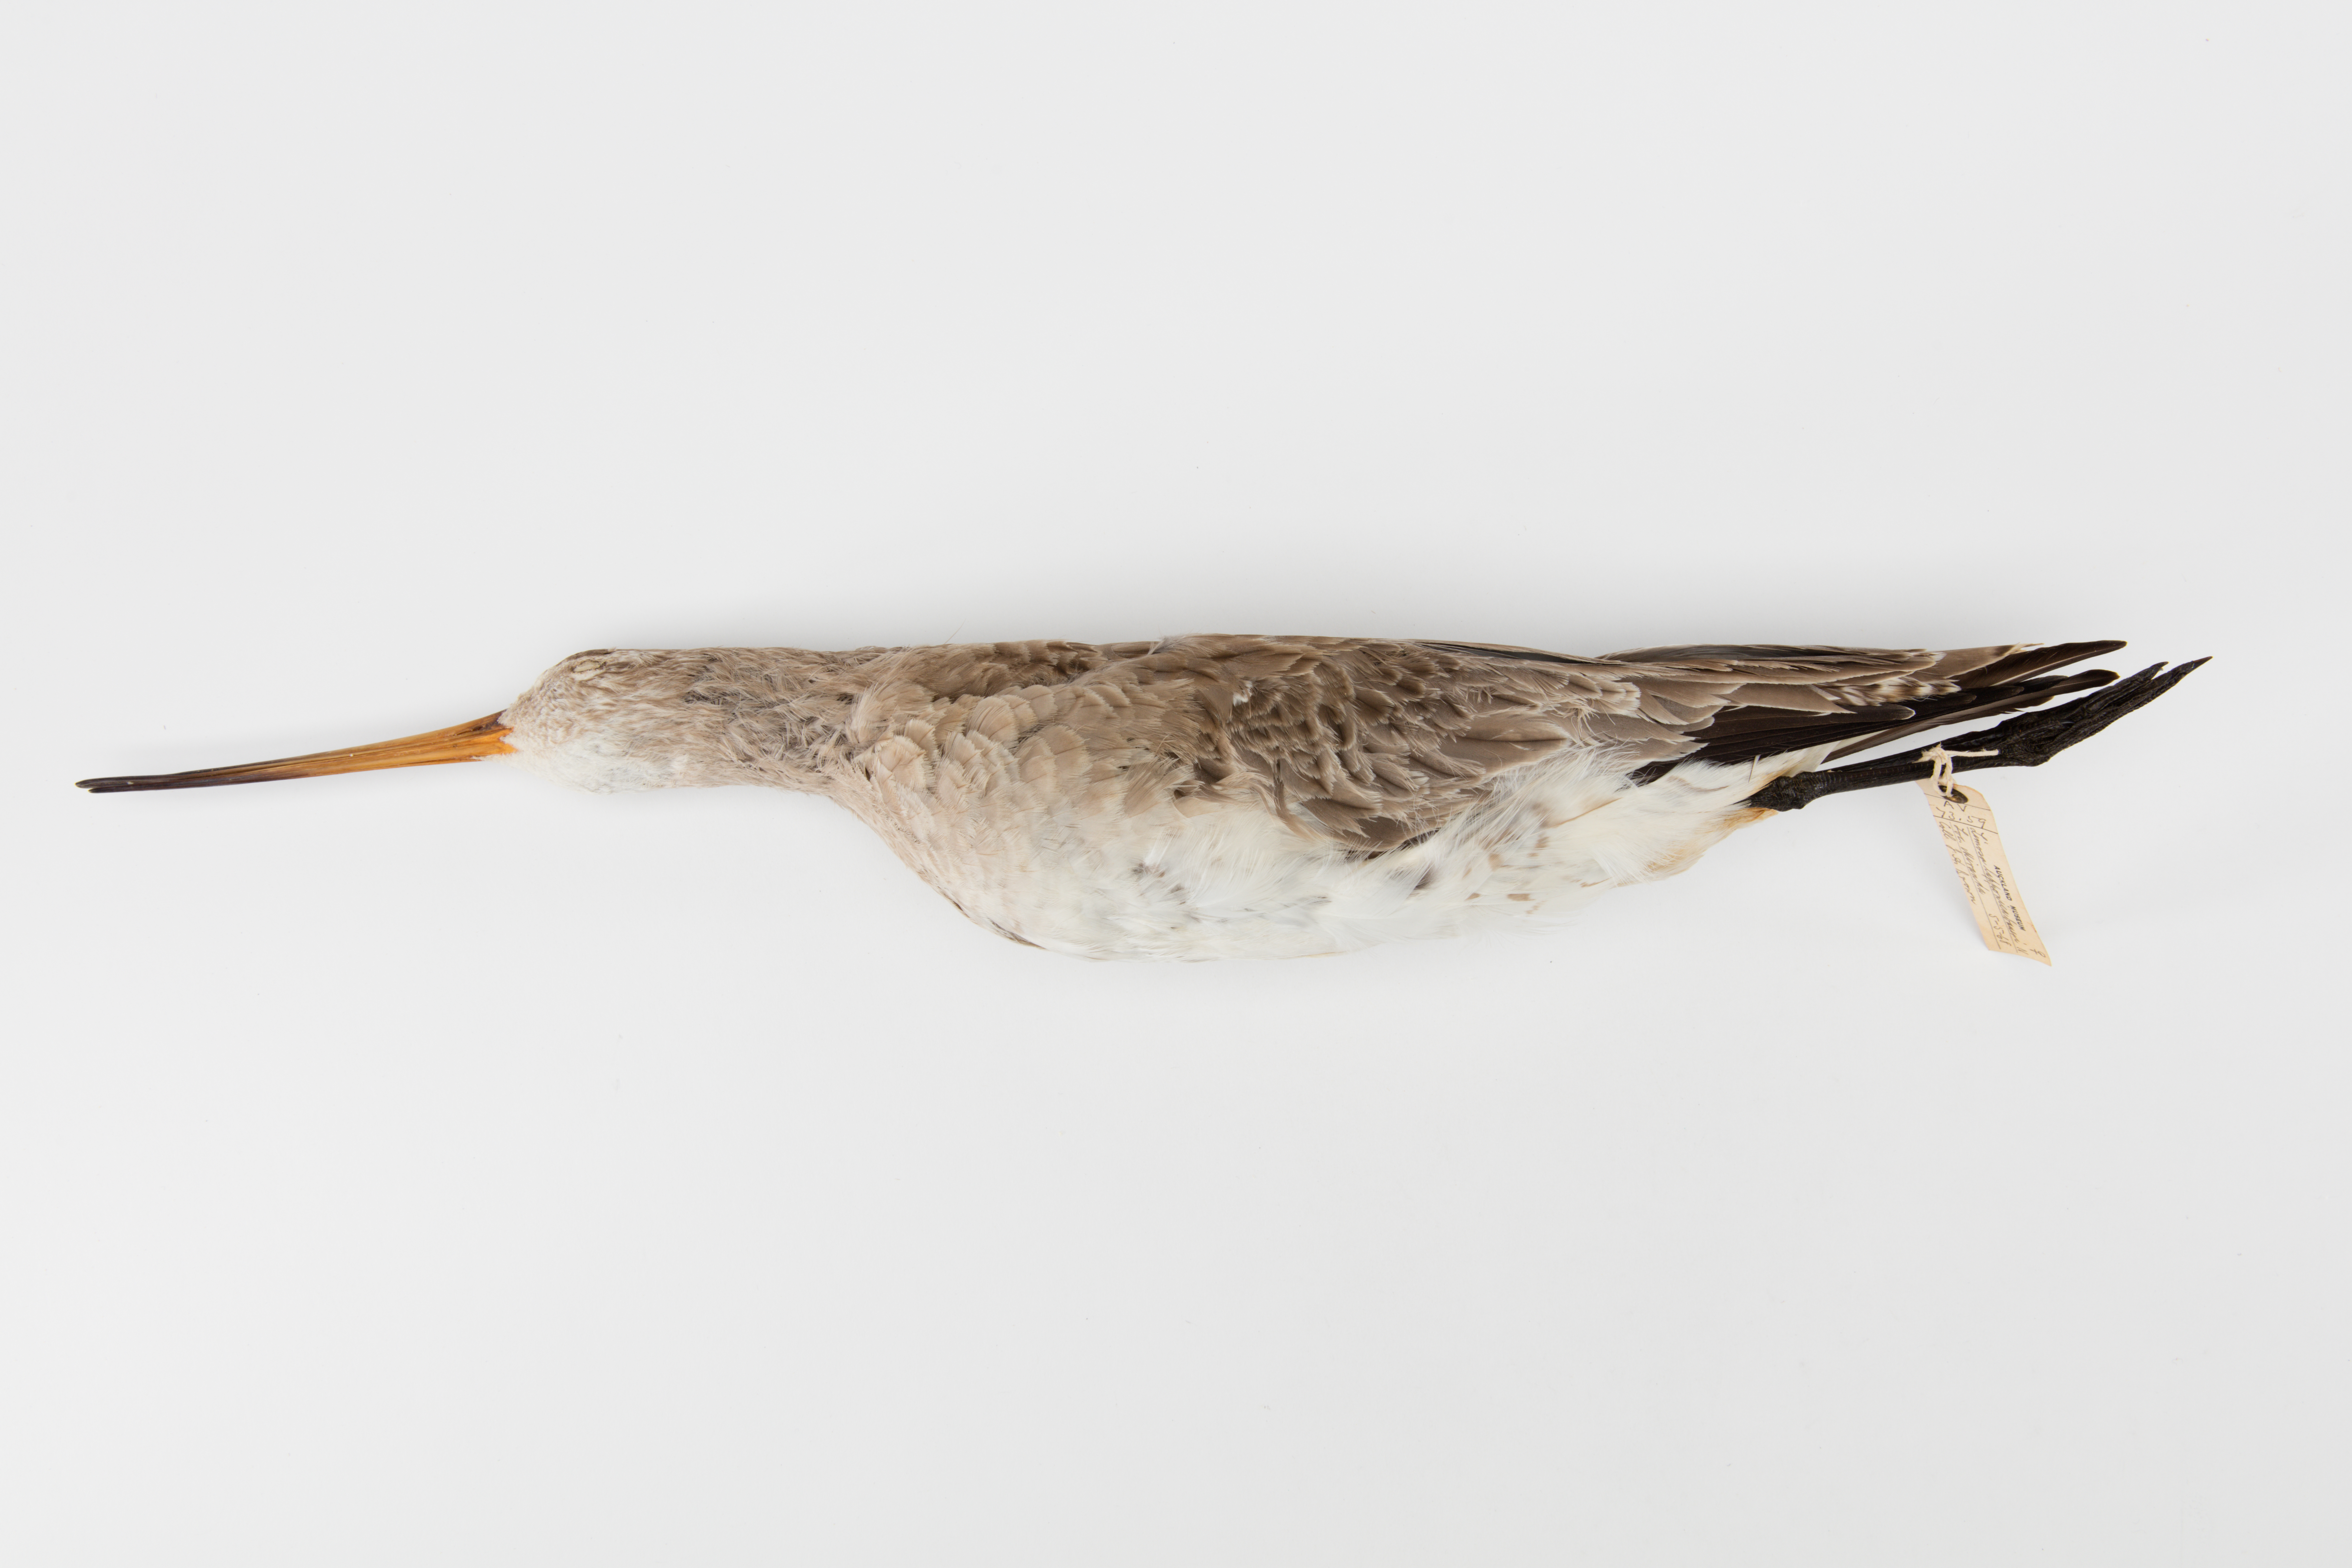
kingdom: Animalia
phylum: Chordata
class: Aves
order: Charadriiformes
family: Scolopacidae
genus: Limosa
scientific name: Limosa lapponica
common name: Bar-tailed godwit
